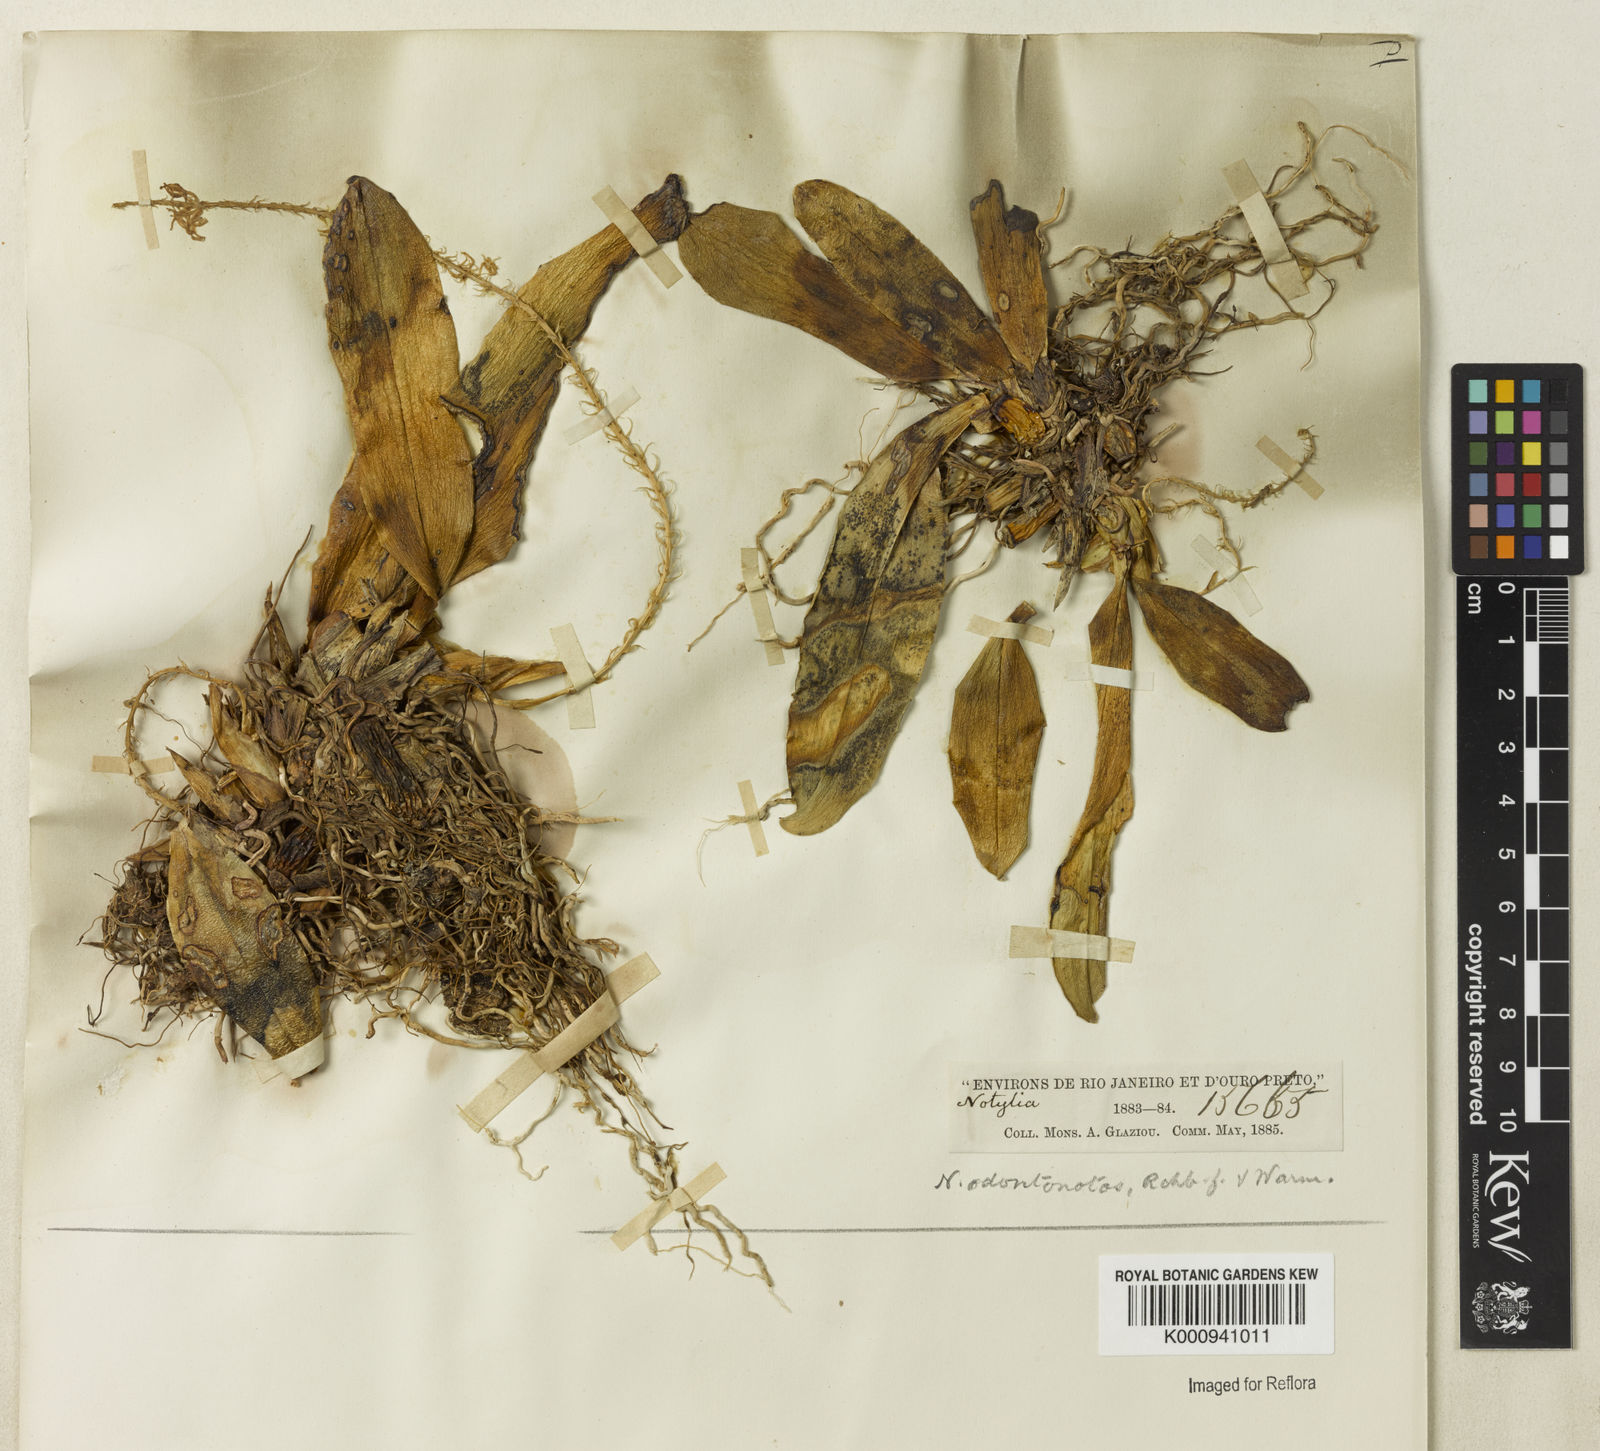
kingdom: Plantae
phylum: Tracheophyta
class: Liliopsida
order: Asparagales
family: Orchidaceae
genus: Notylia
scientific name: Notylia odontonotos
